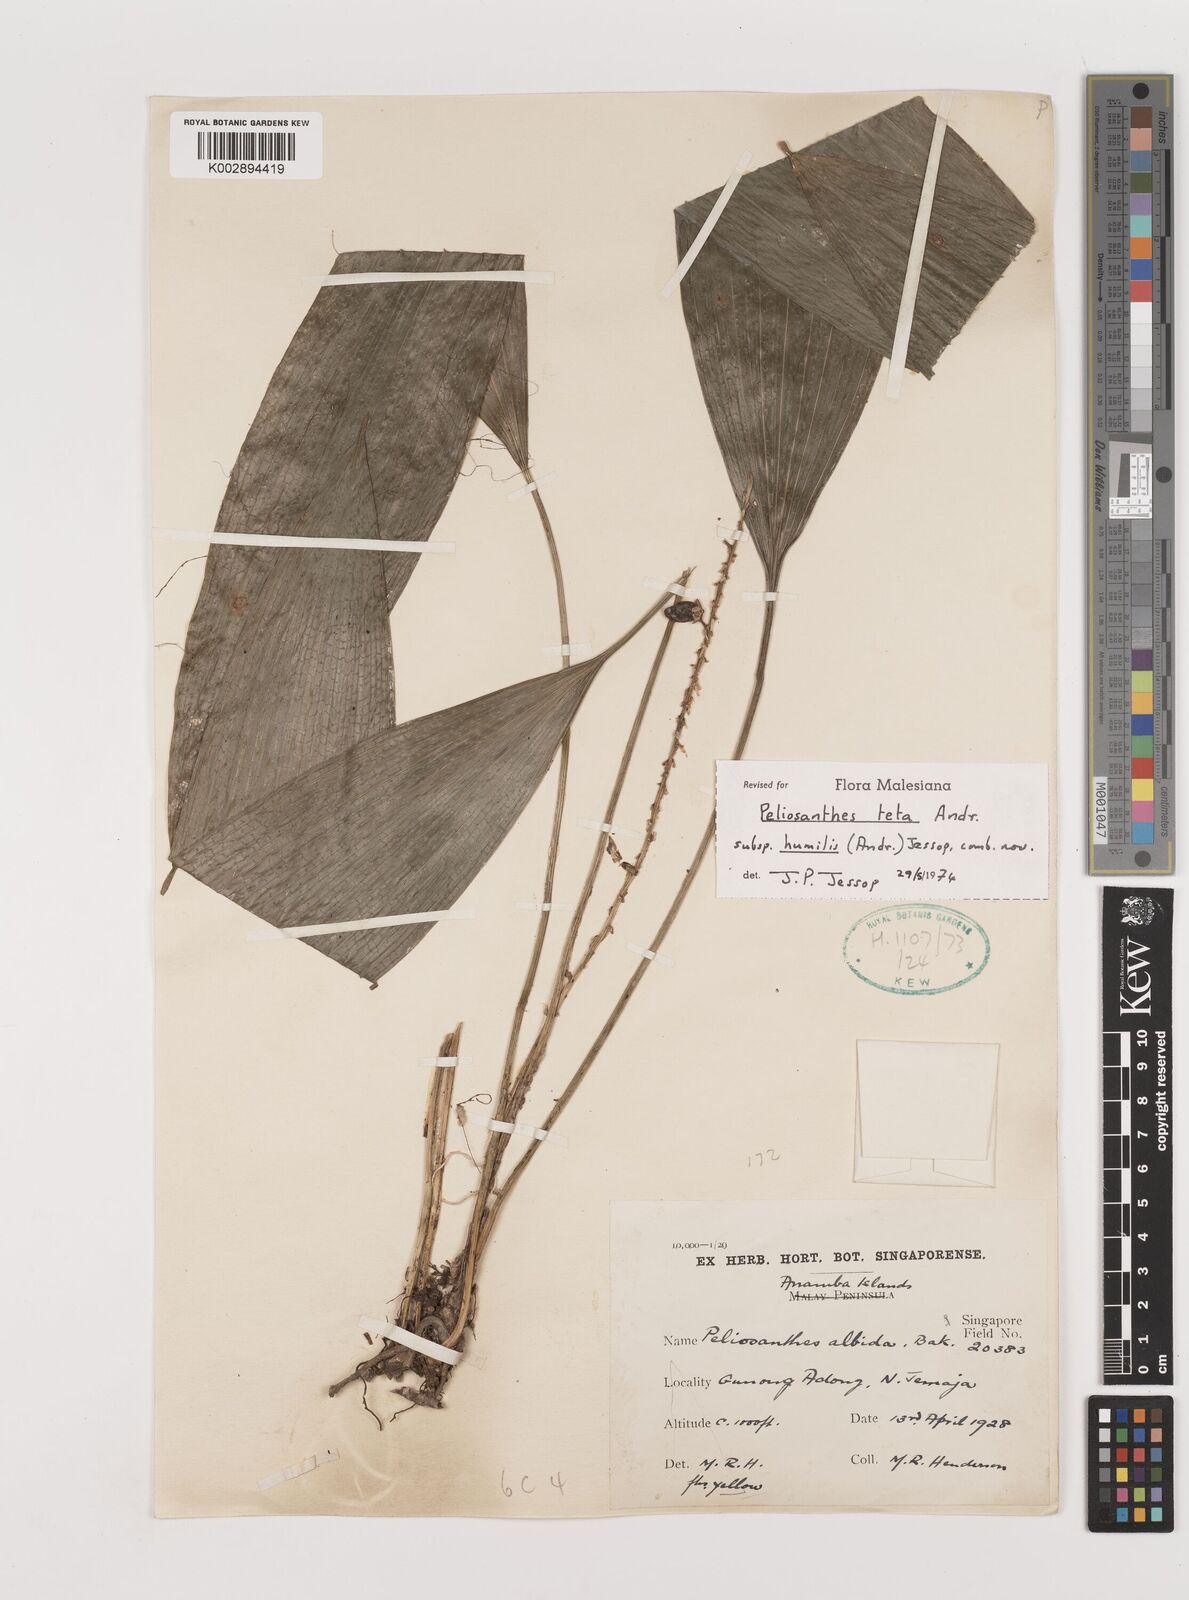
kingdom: Plantae
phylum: Tracheophyta
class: Liliopsida
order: Asparagales
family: Asparagaceae
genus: Peliosanthes
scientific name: Peliosanthes teta
